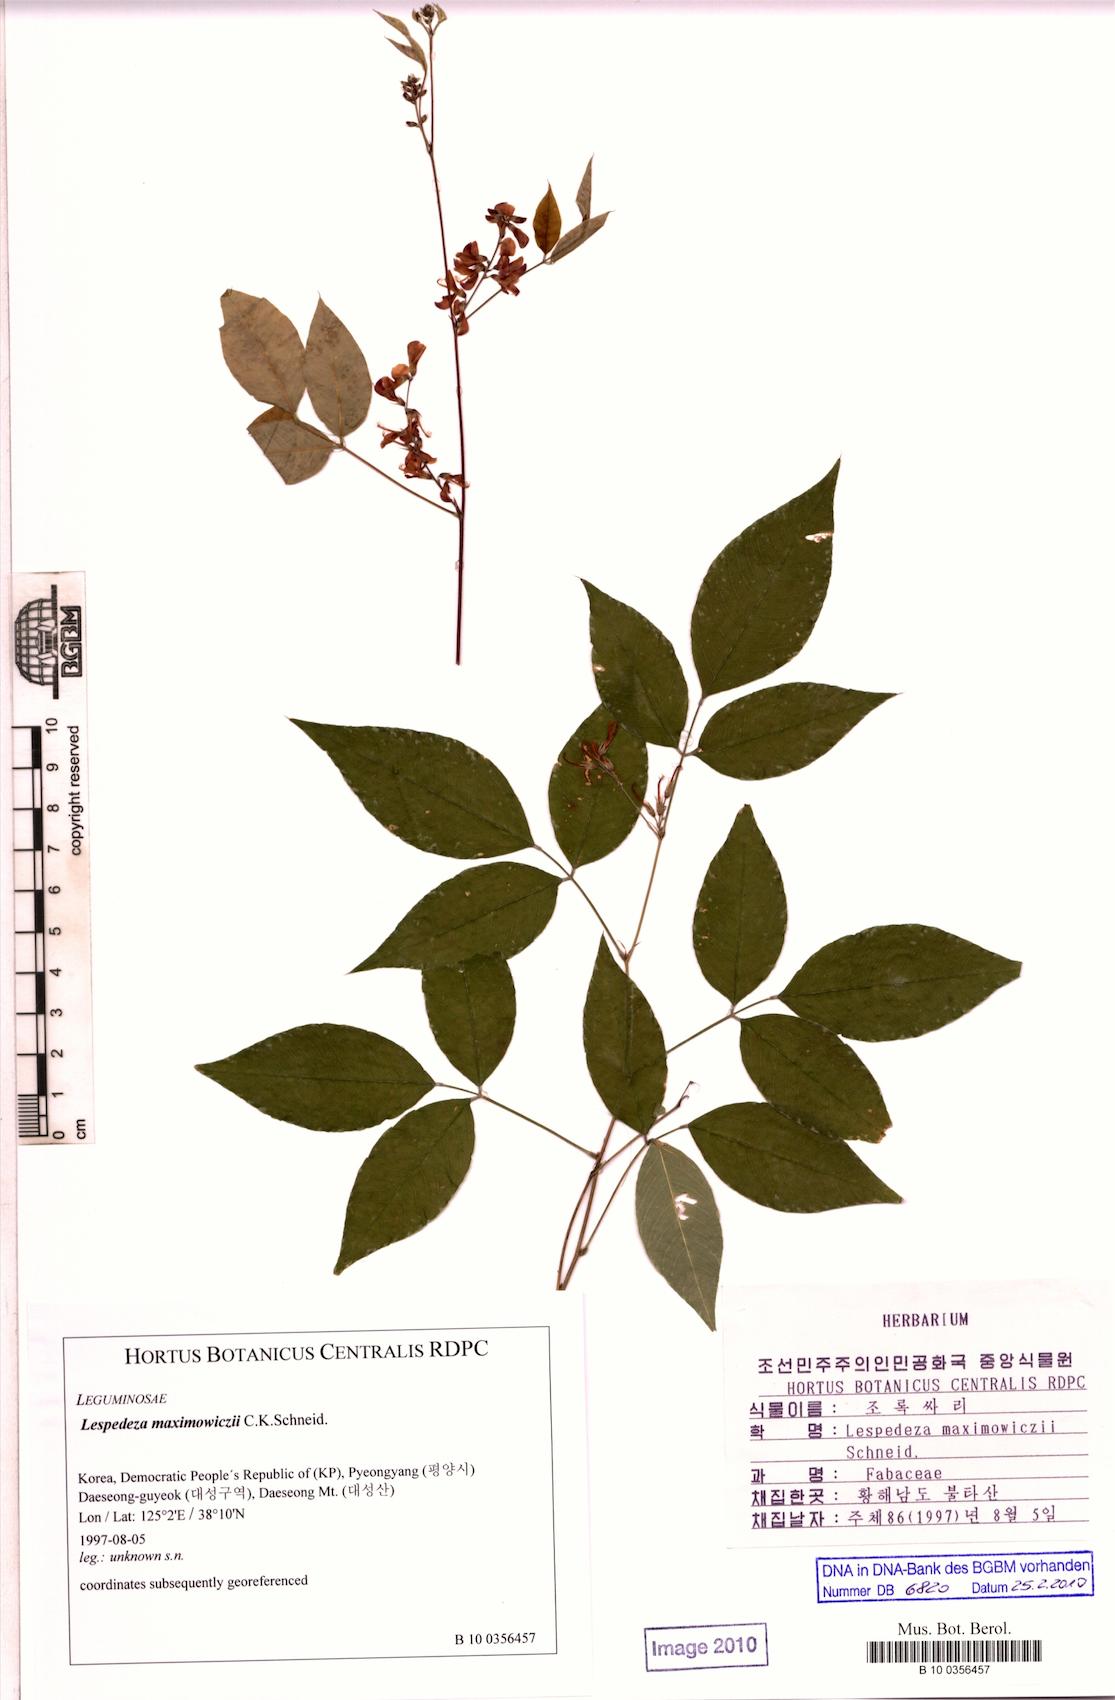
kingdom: Plantae
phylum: Tracheophyta
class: Magnoliopsida
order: Fabales
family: Fabaceae
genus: Lespedeza
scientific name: Lespedeza maximowiczii
